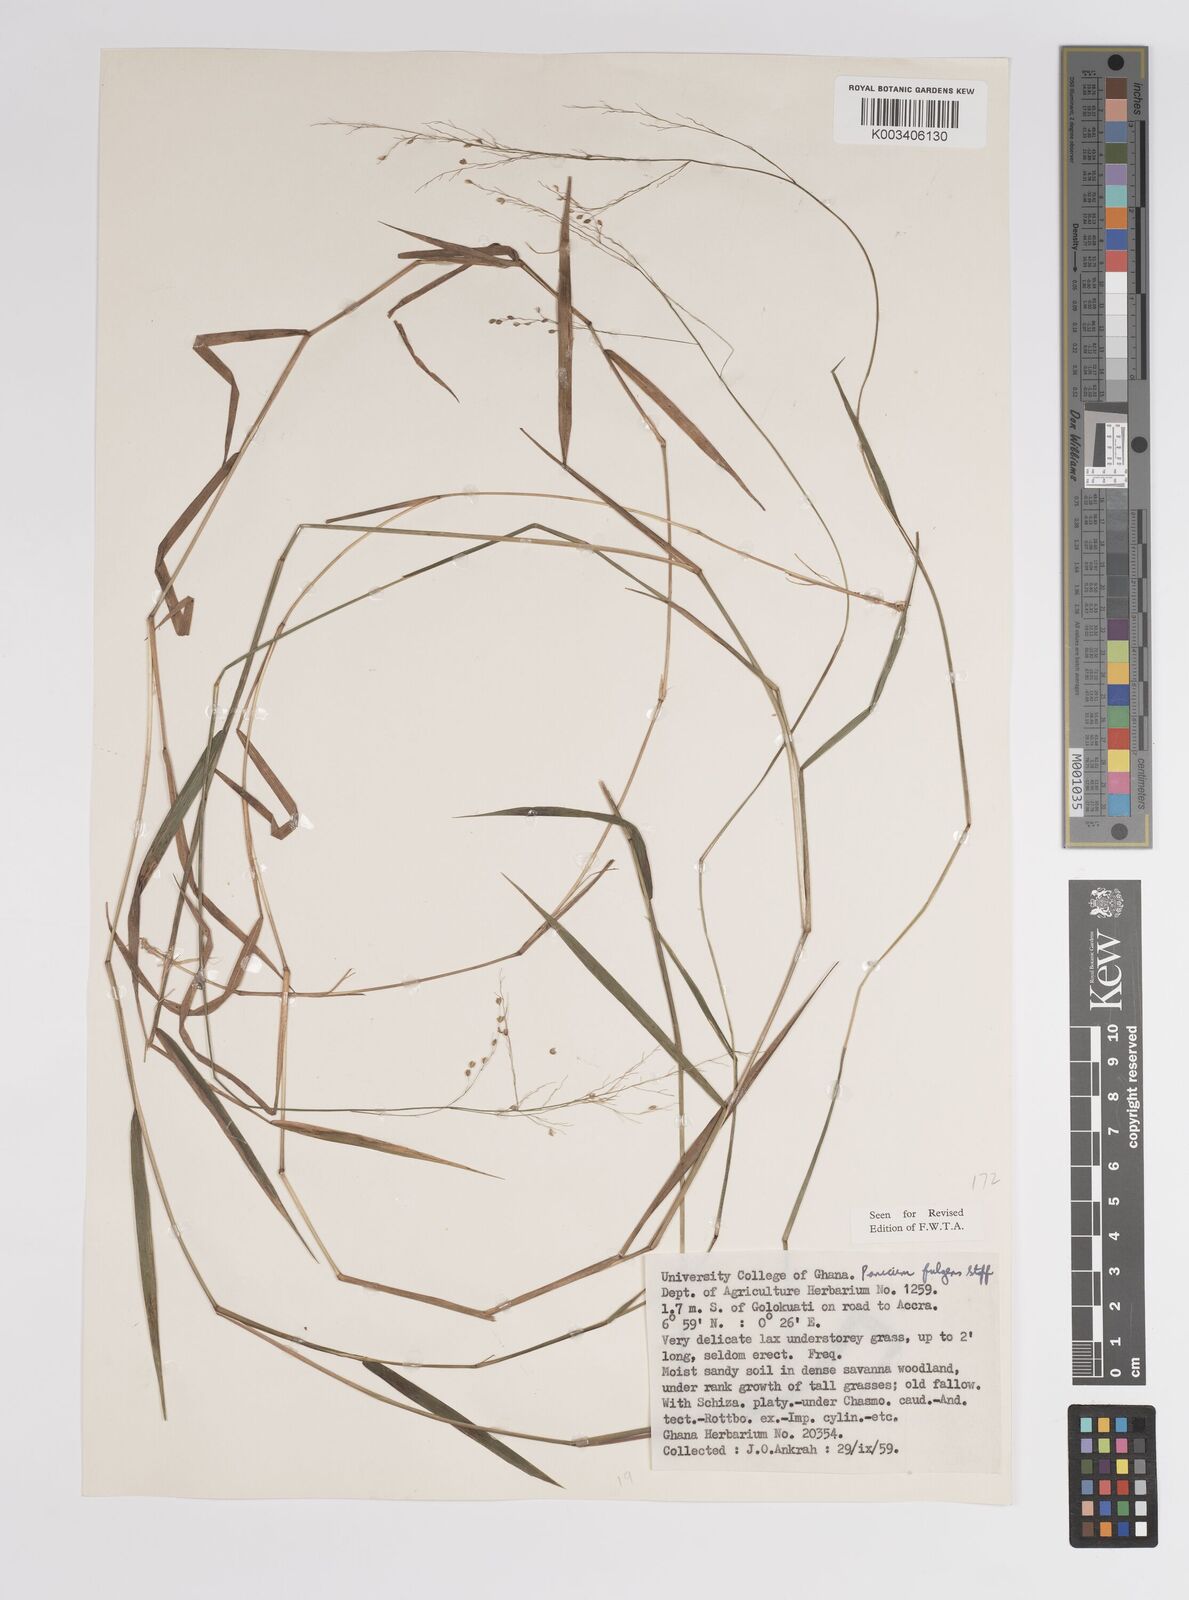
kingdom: Plantae
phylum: Tracheophyta
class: Liliopsida
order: Poales
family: Poaceae
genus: Trichanthecium
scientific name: Trichanthecium nervatum
